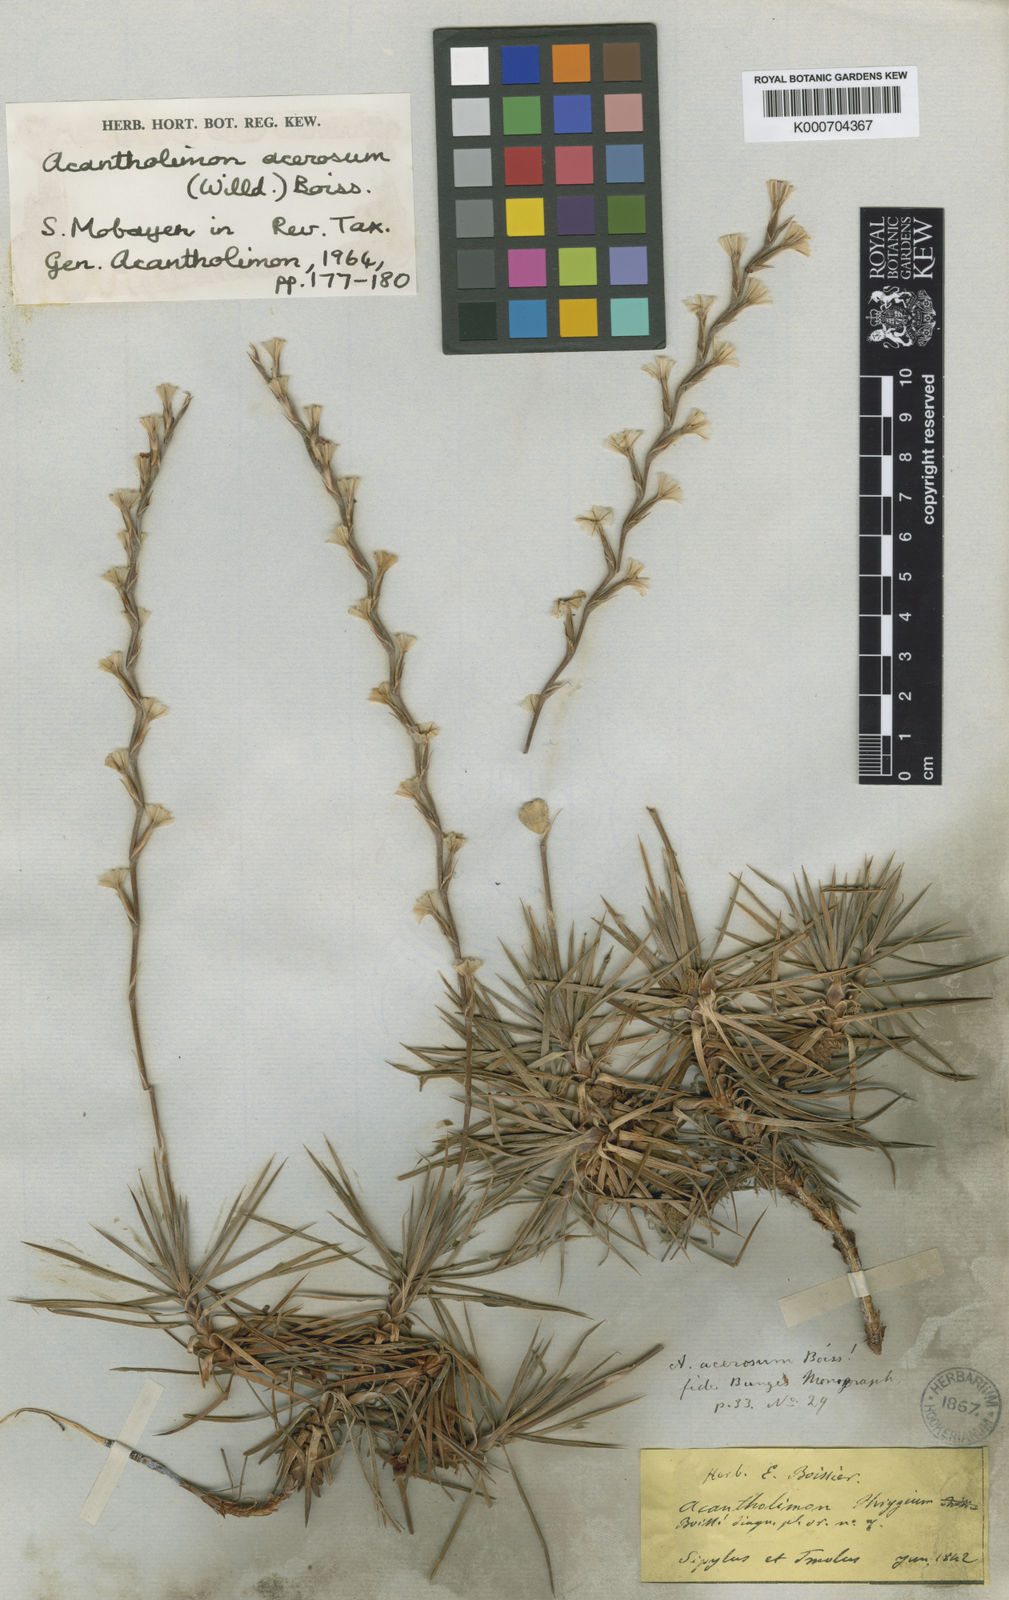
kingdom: Plantae
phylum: Tracheophyta
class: Magnoliopsida
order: Caryophyllales
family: Plumbaginaceae
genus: Acantholimon
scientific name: Acantholimon acerosum
